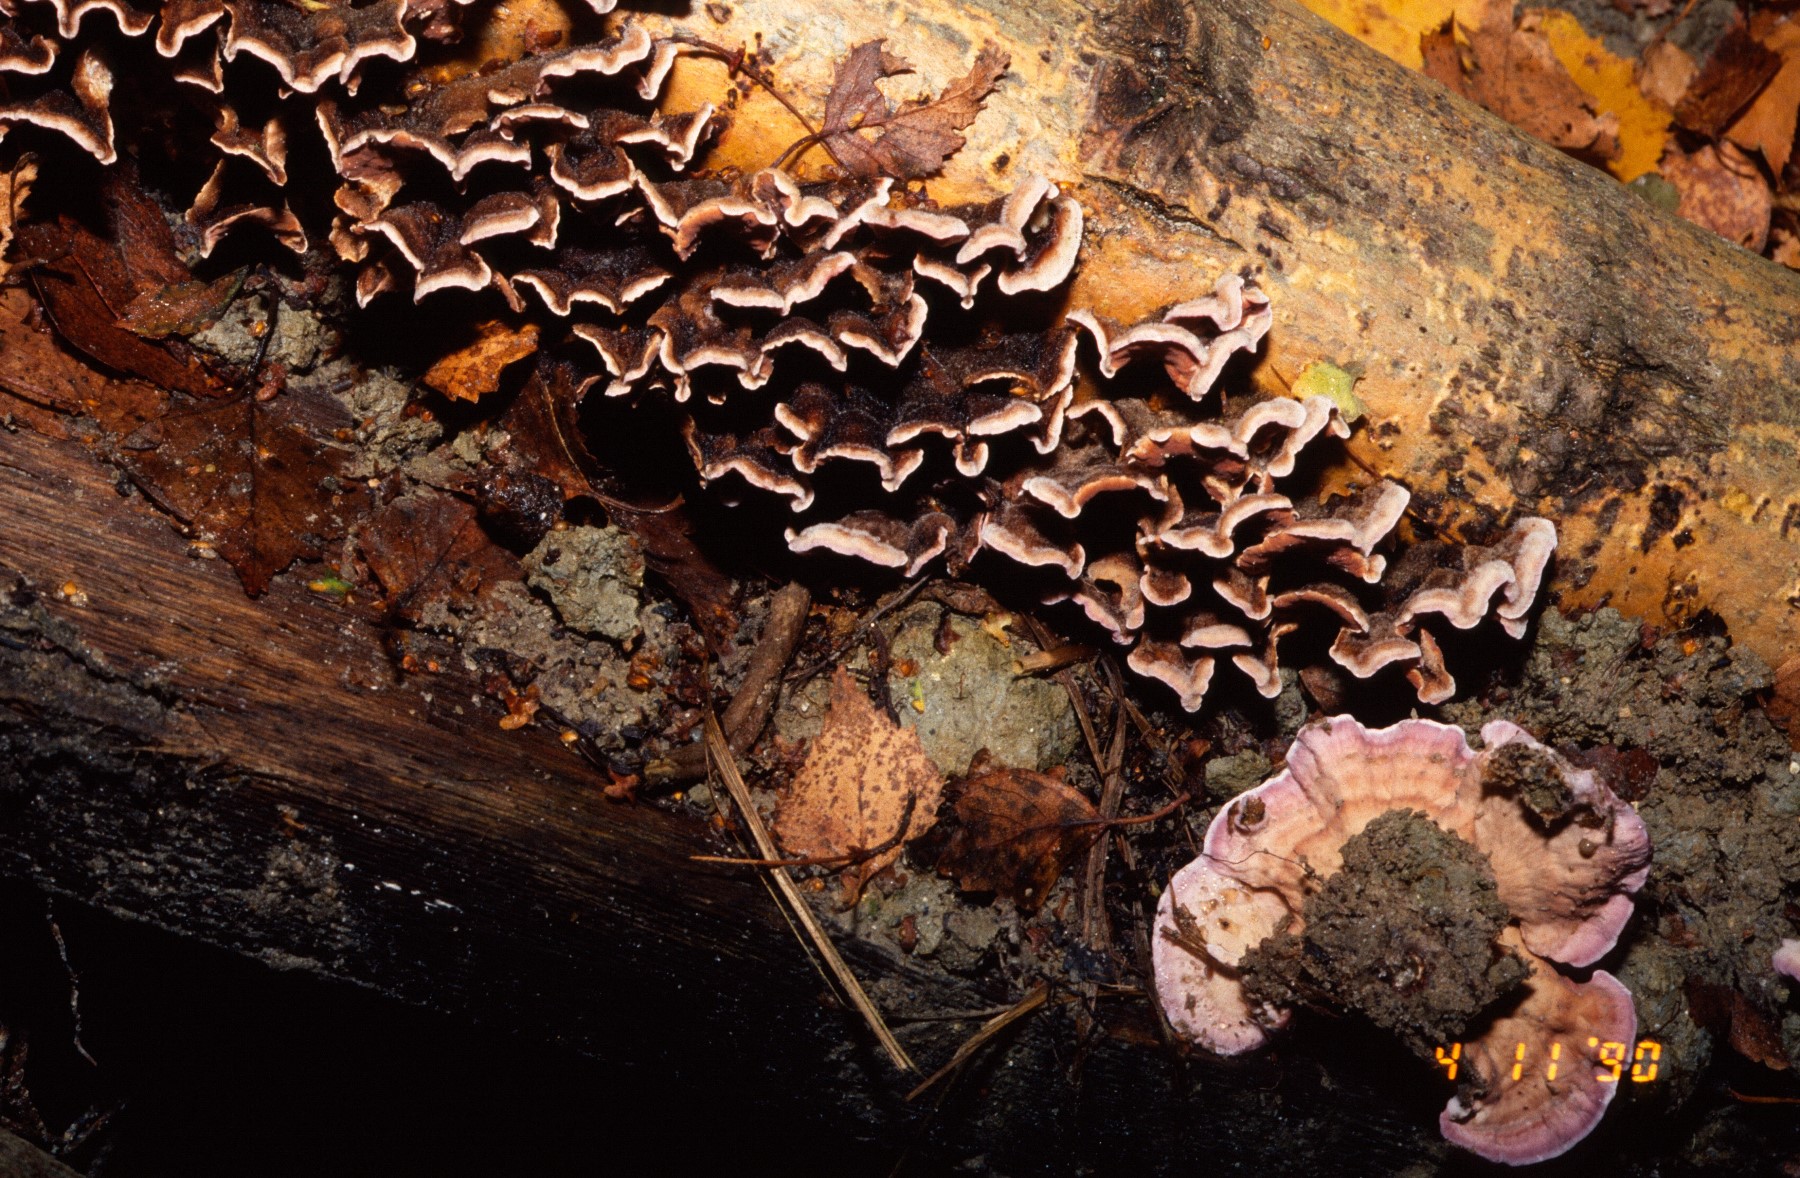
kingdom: Fungi
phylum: Basidiomycota
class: Agaricomycetes
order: Agaricales
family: Cyphellaceae
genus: Chondrostereum
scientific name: Chondrostereum purpureum
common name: purpurlædersvamp
